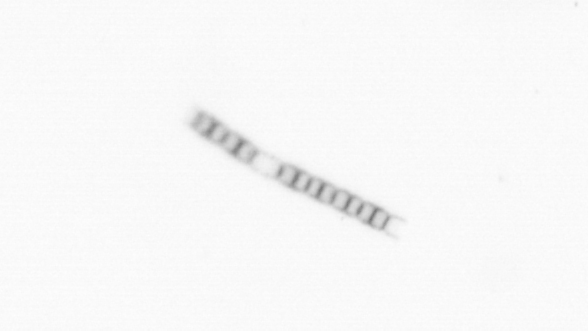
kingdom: Chromista
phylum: Ochrophyta
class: Bacillariophyceae
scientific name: Bacillariophyceae
